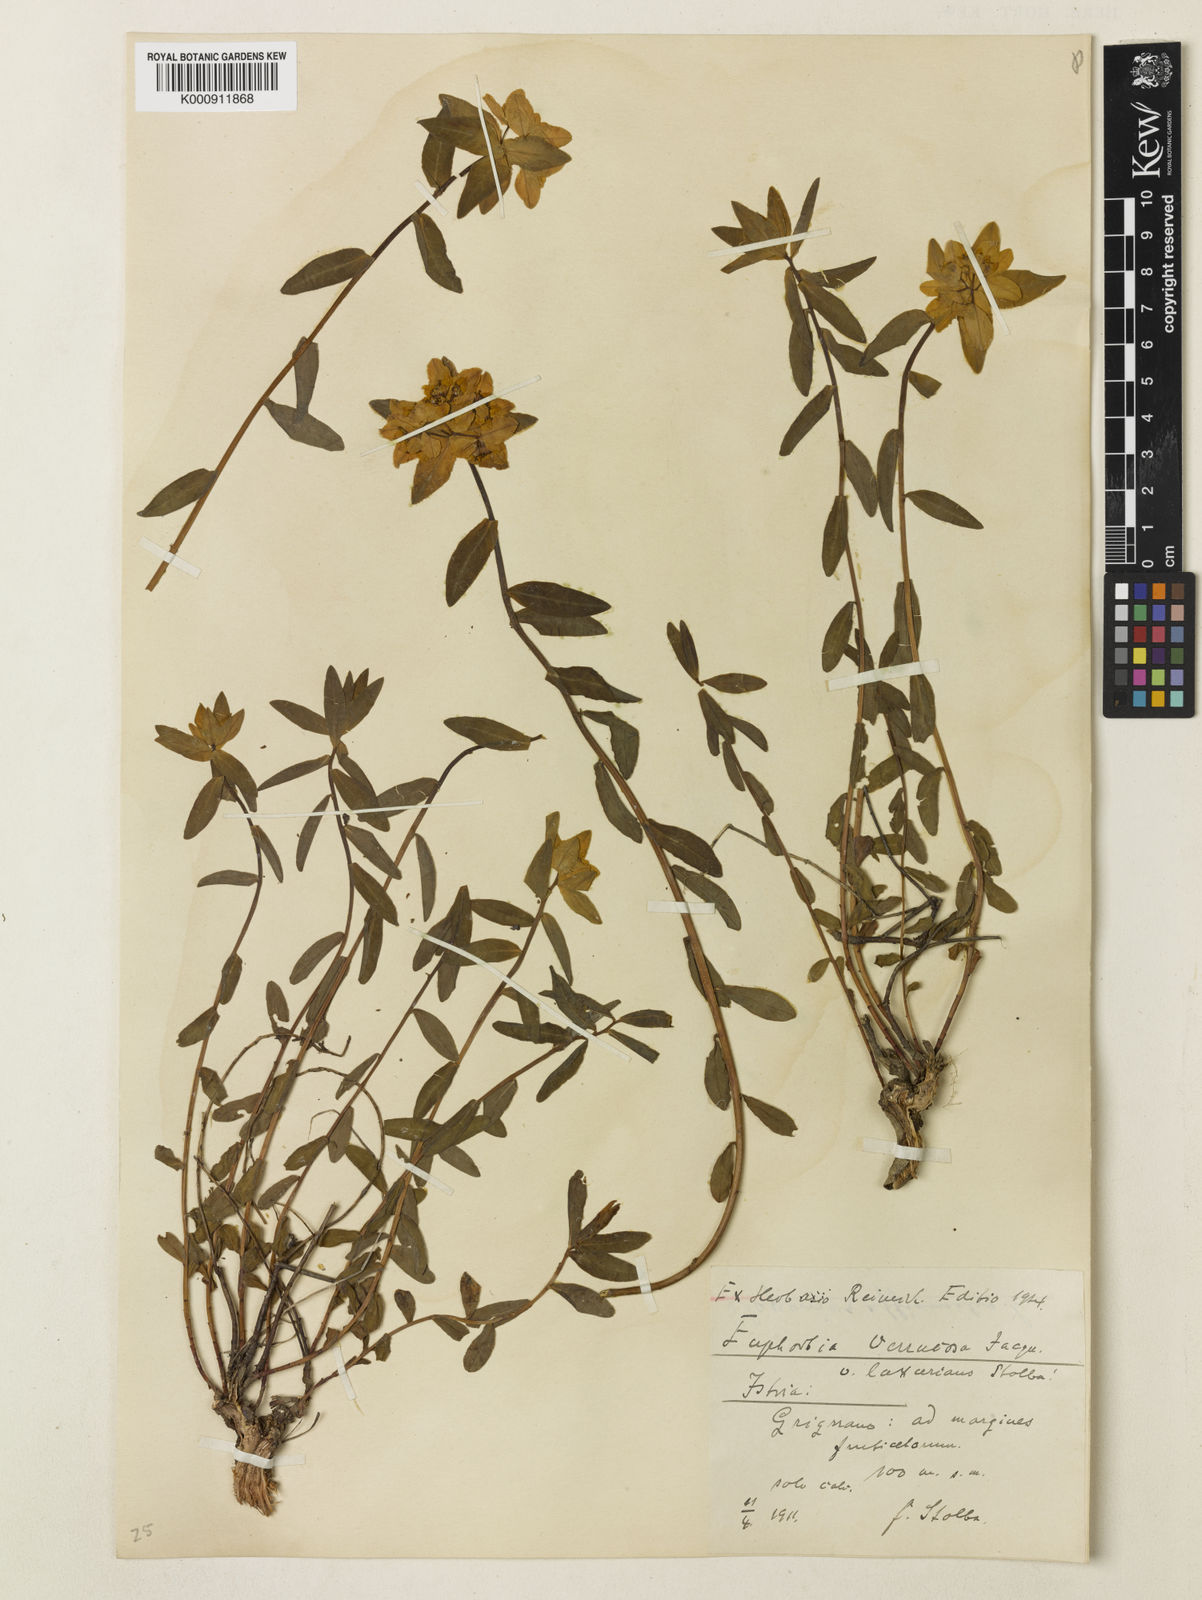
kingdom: Plantae
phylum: Tracheophyta
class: Magnoliopsida
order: Malpighiales
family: Euphorbiaceae
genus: Euphorbia
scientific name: Euphorbia
